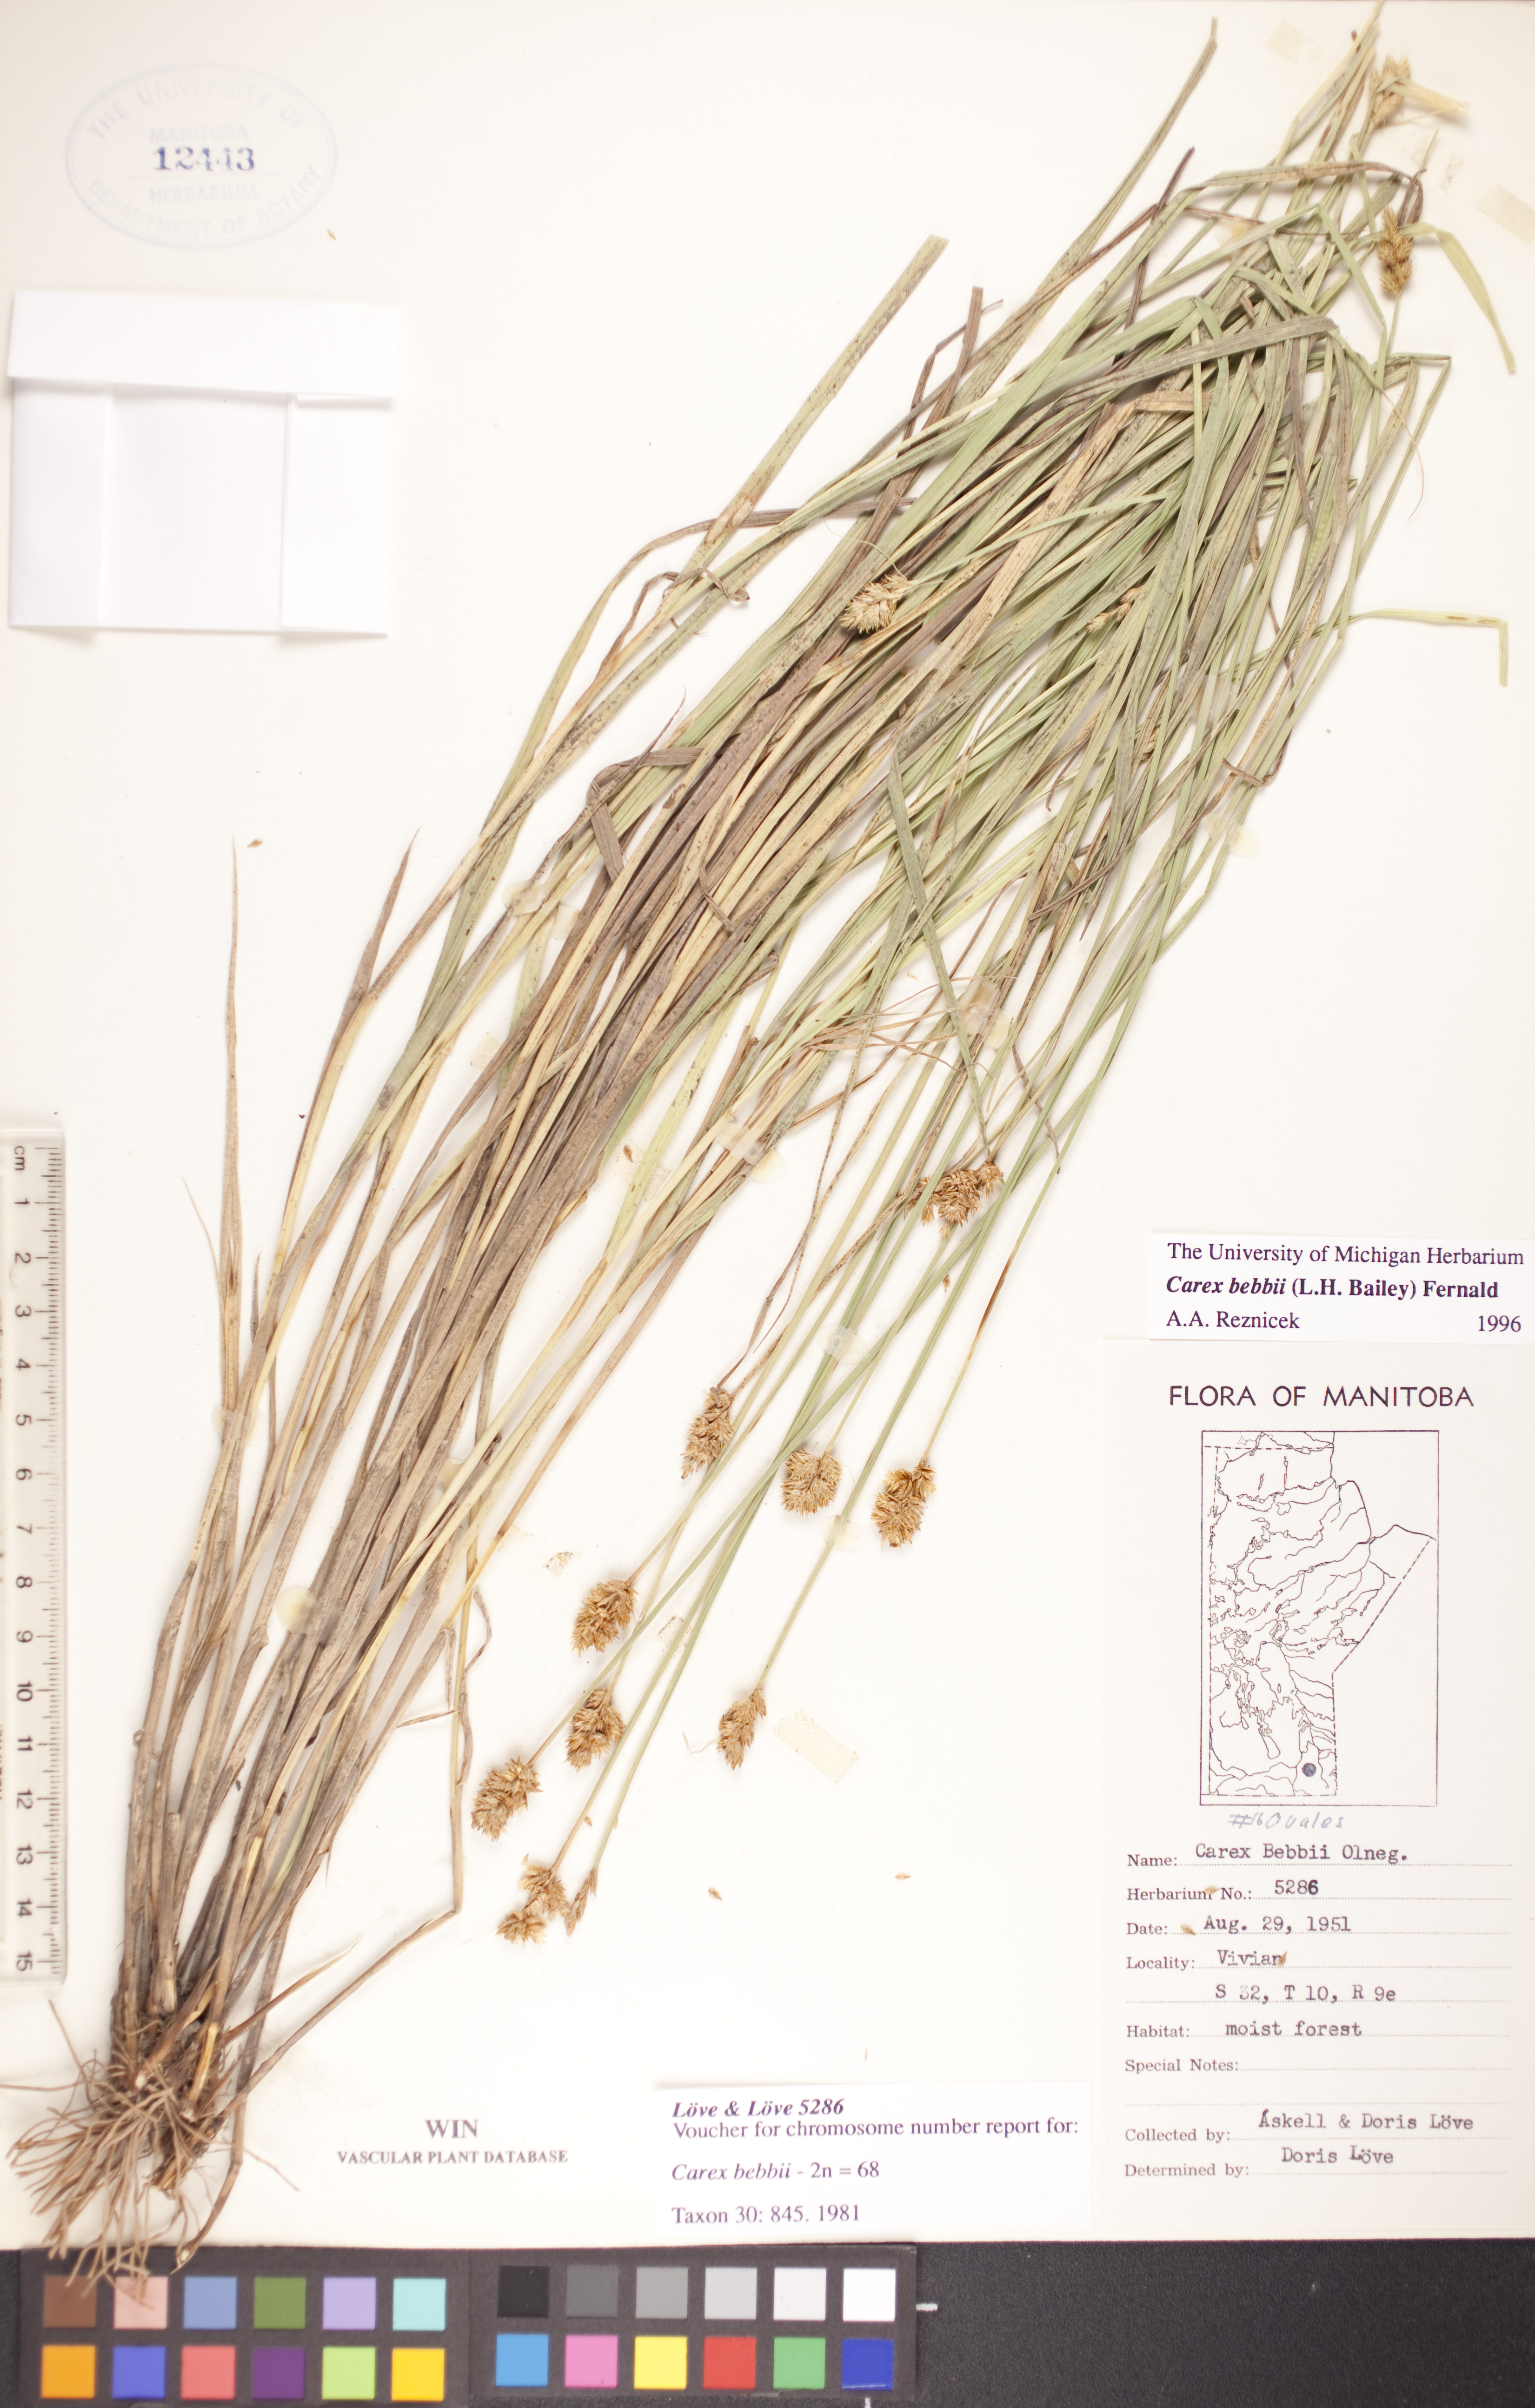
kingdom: Plantae
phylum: Tracheophyta
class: Liliopsida
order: Poales
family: Cyperaceae
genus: Carex
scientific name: Carex bebbii
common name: Bebb's sedge
